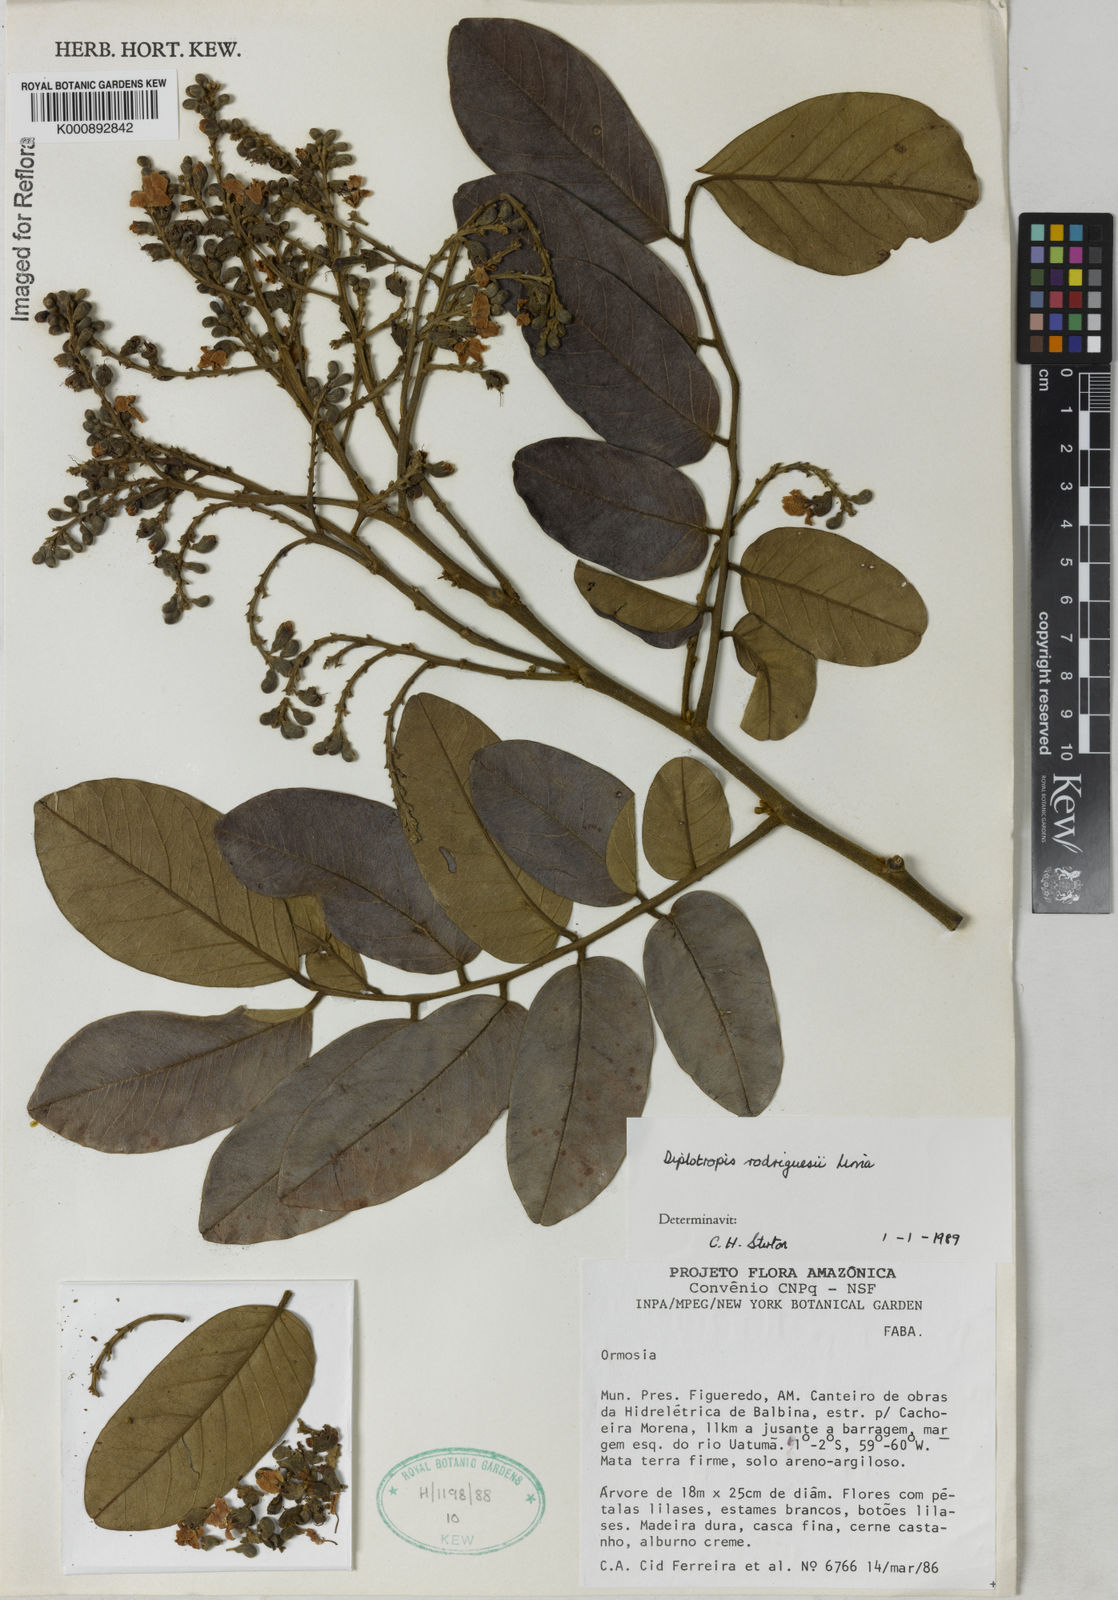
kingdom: Plantae
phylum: Tracheophyta
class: Magnoliopsida
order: Fabales
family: Fabaceae
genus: Diplotropis
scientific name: Diplotropis rodriguesii
